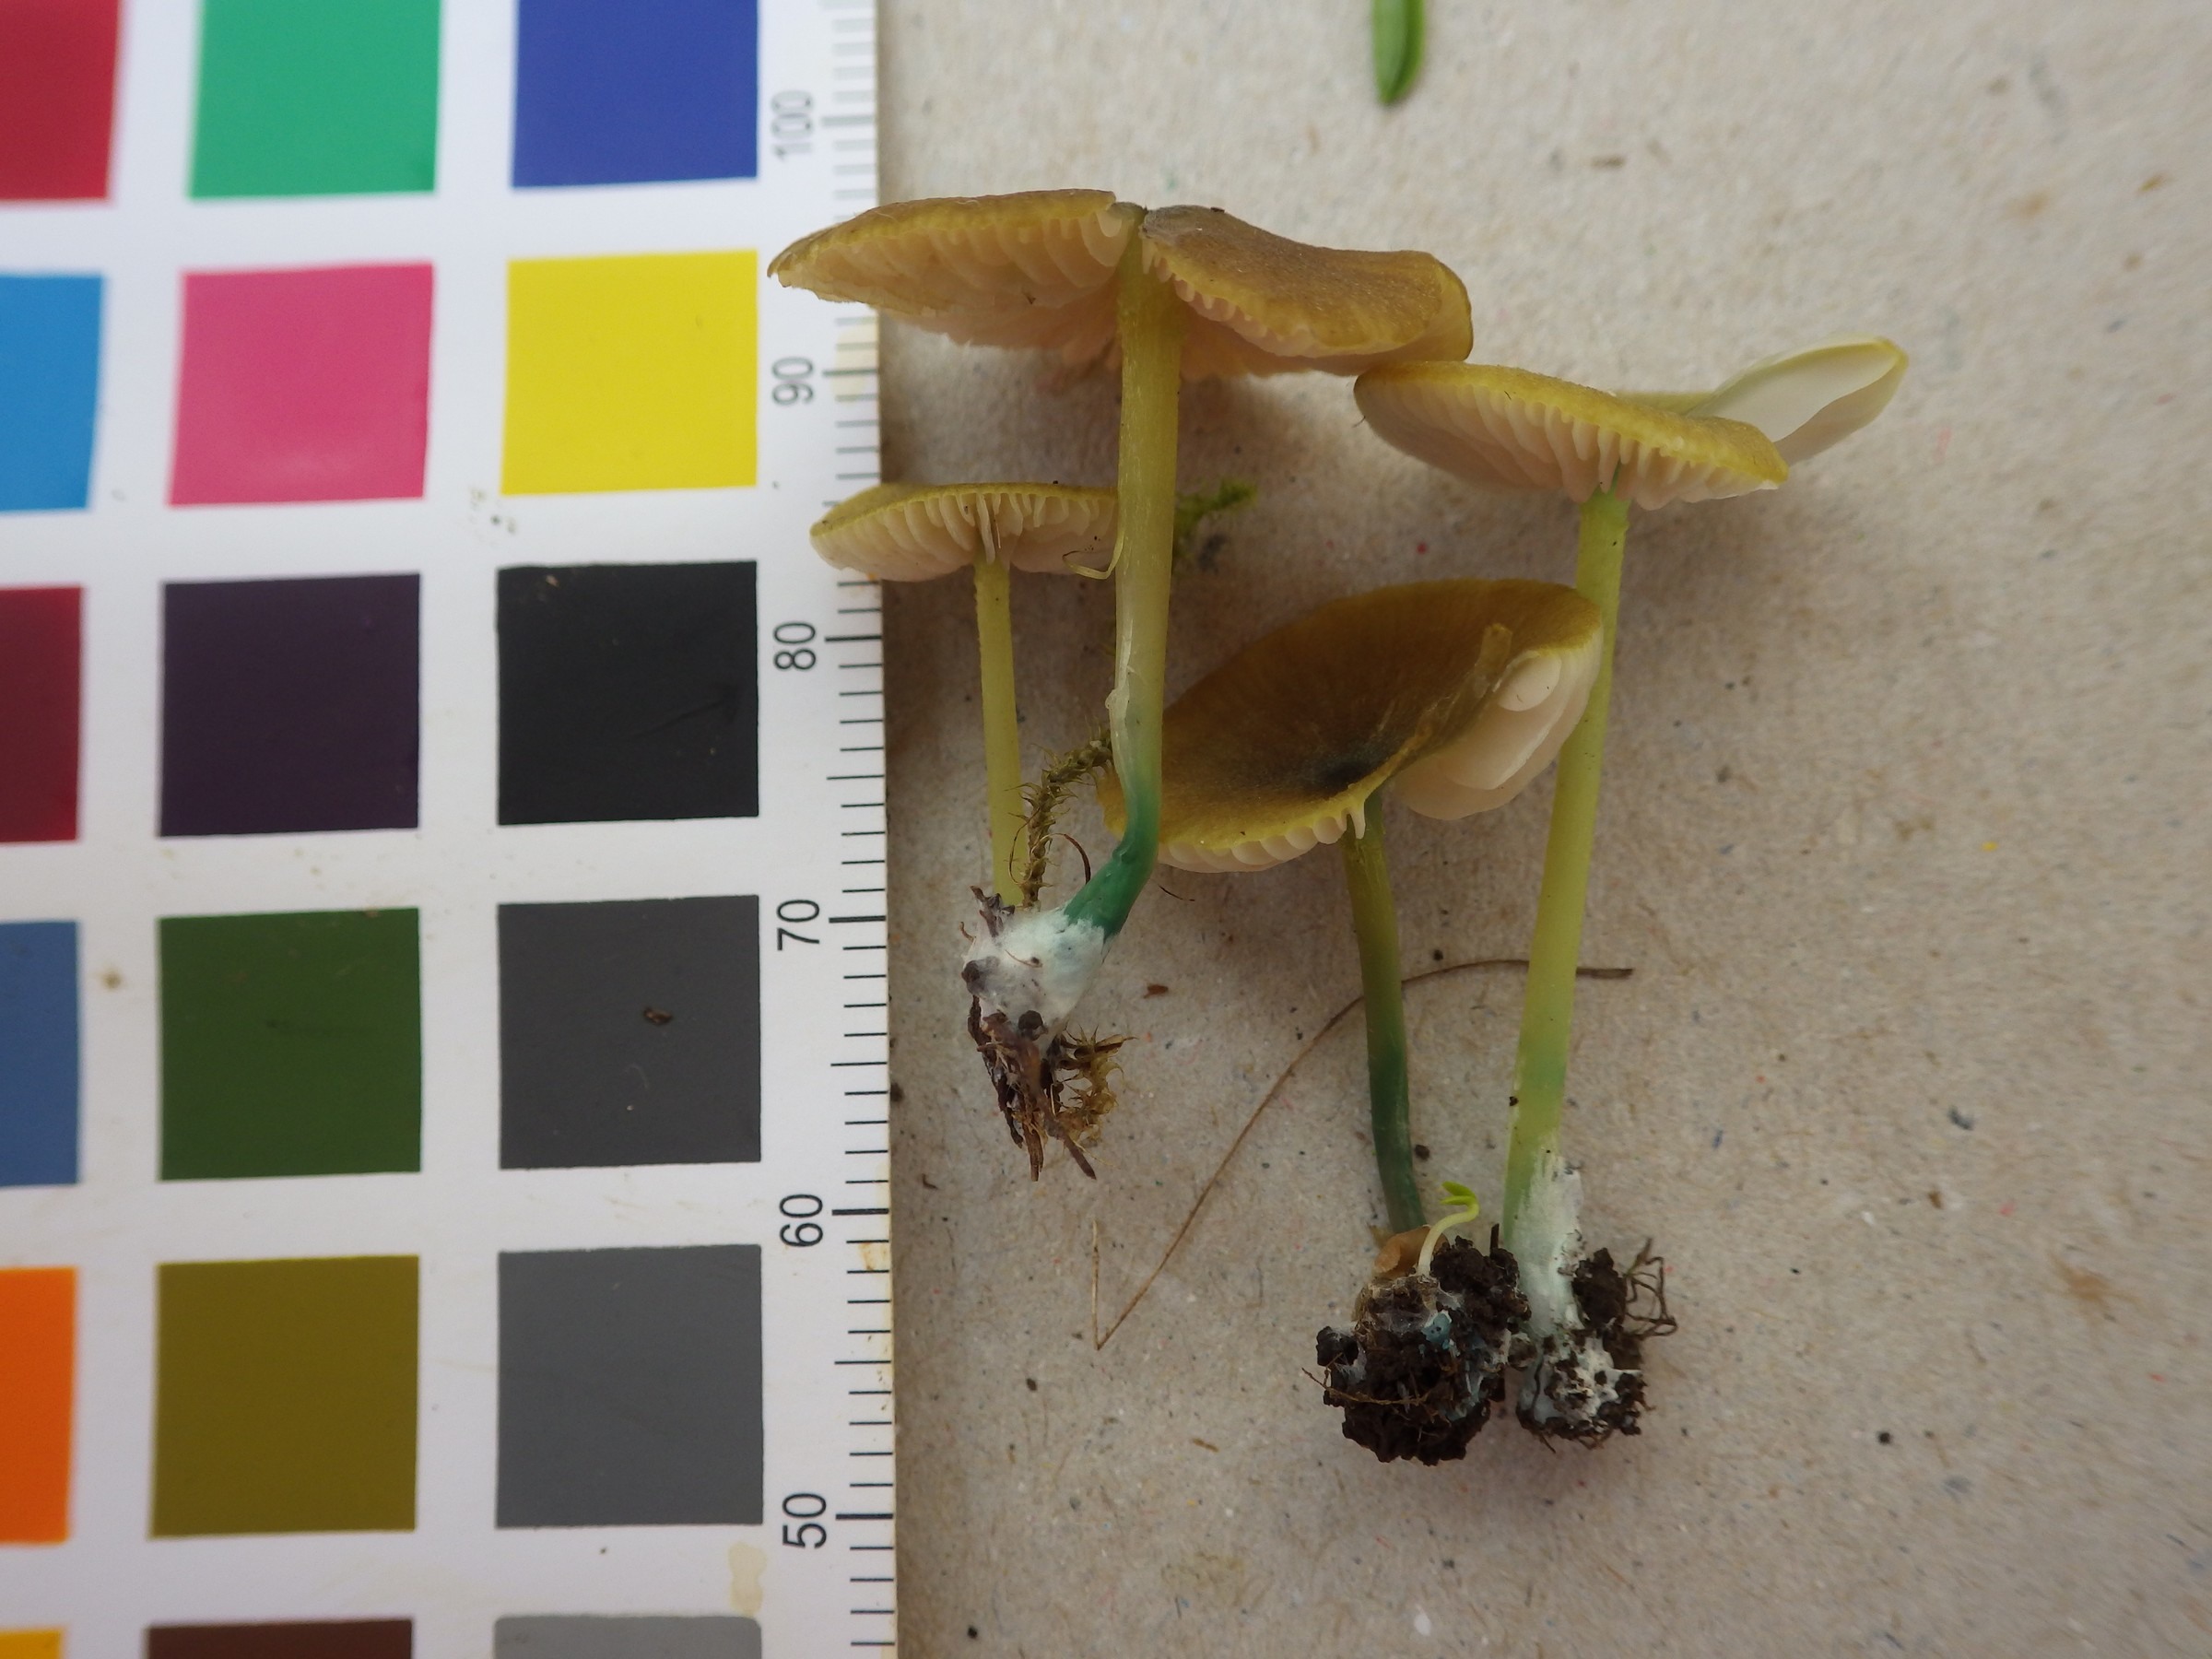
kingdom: Fungi
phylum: Basidiomycota
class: Agaricomycetes
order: Agaricales
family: Entolomataceae
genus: Entoloma
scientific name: Entoloma incanum
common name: Mousepee pinkgill
